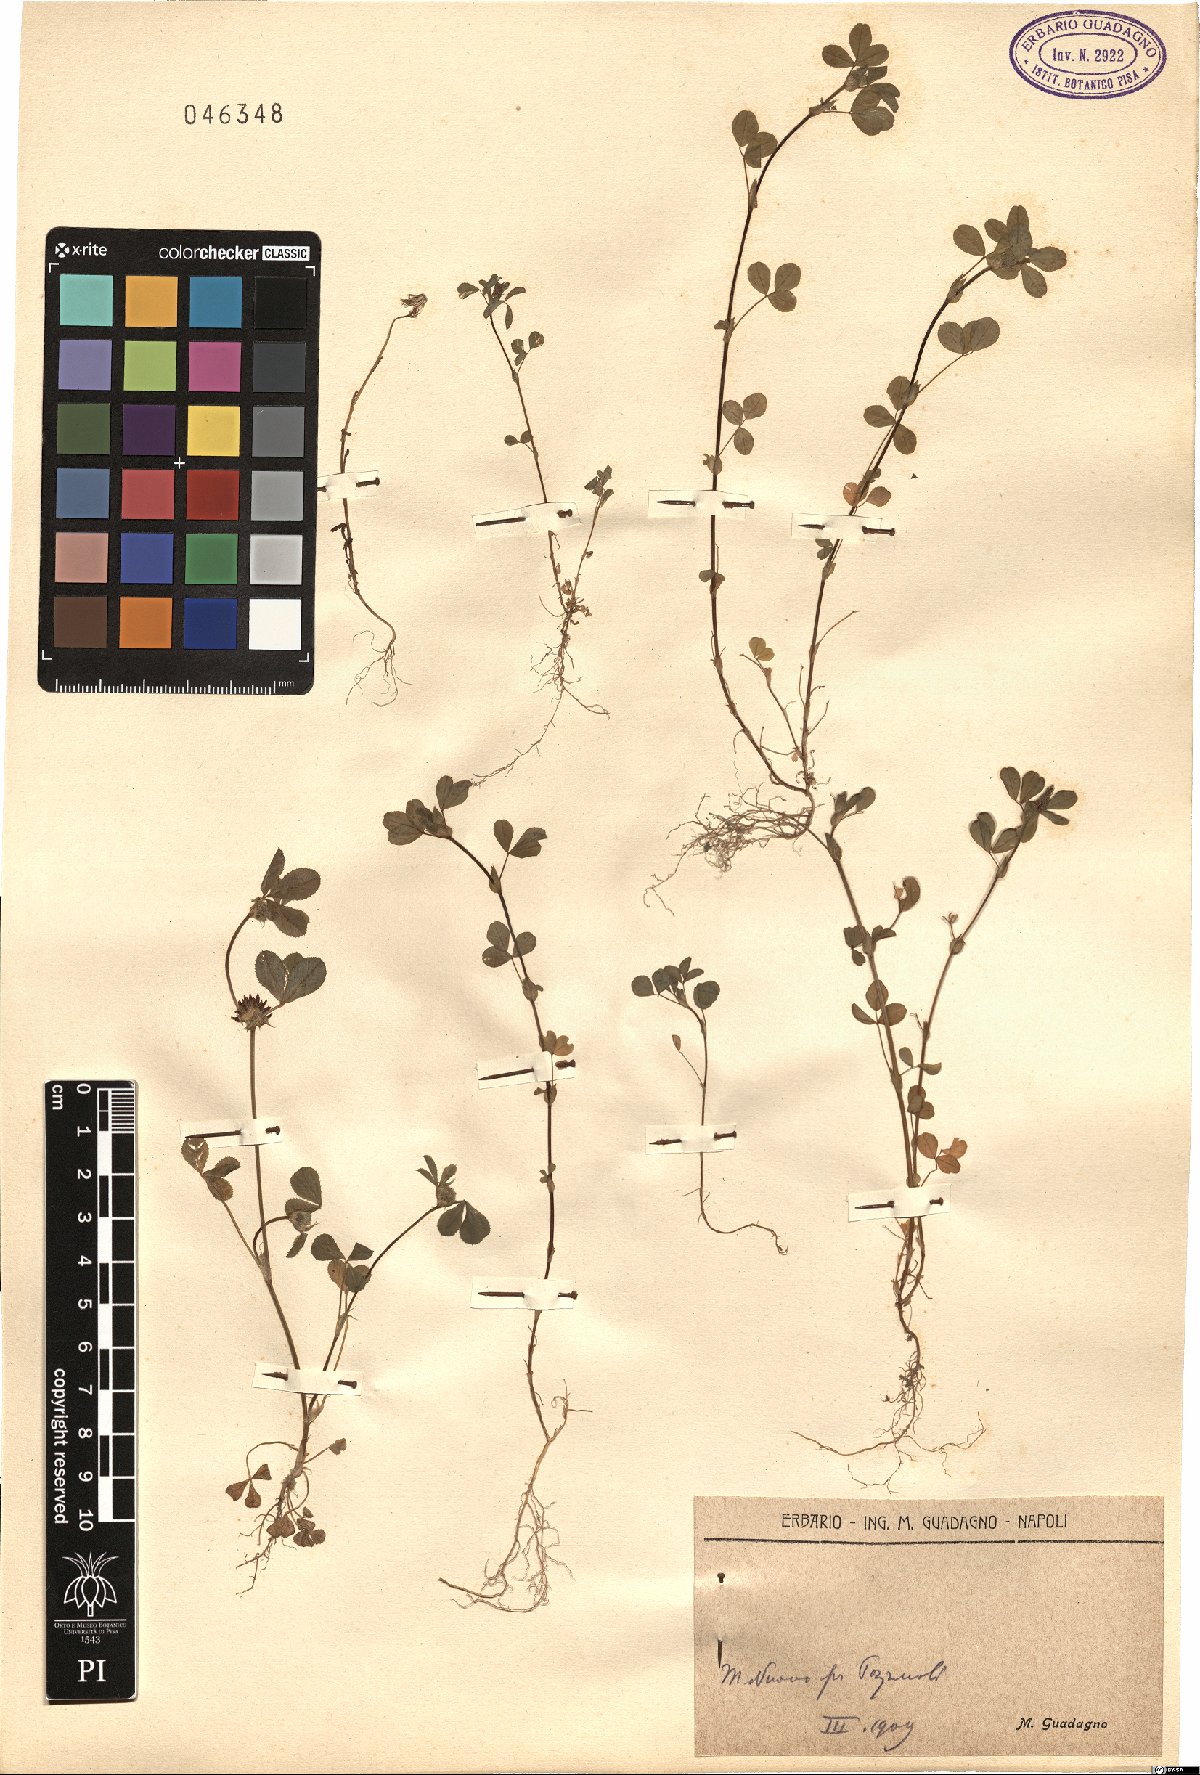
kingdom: Plantae
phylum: Tracheophyta
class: Magnoliopsida
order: Fabales
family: Fabaceae
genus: Trifolium
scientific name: Trifolium
